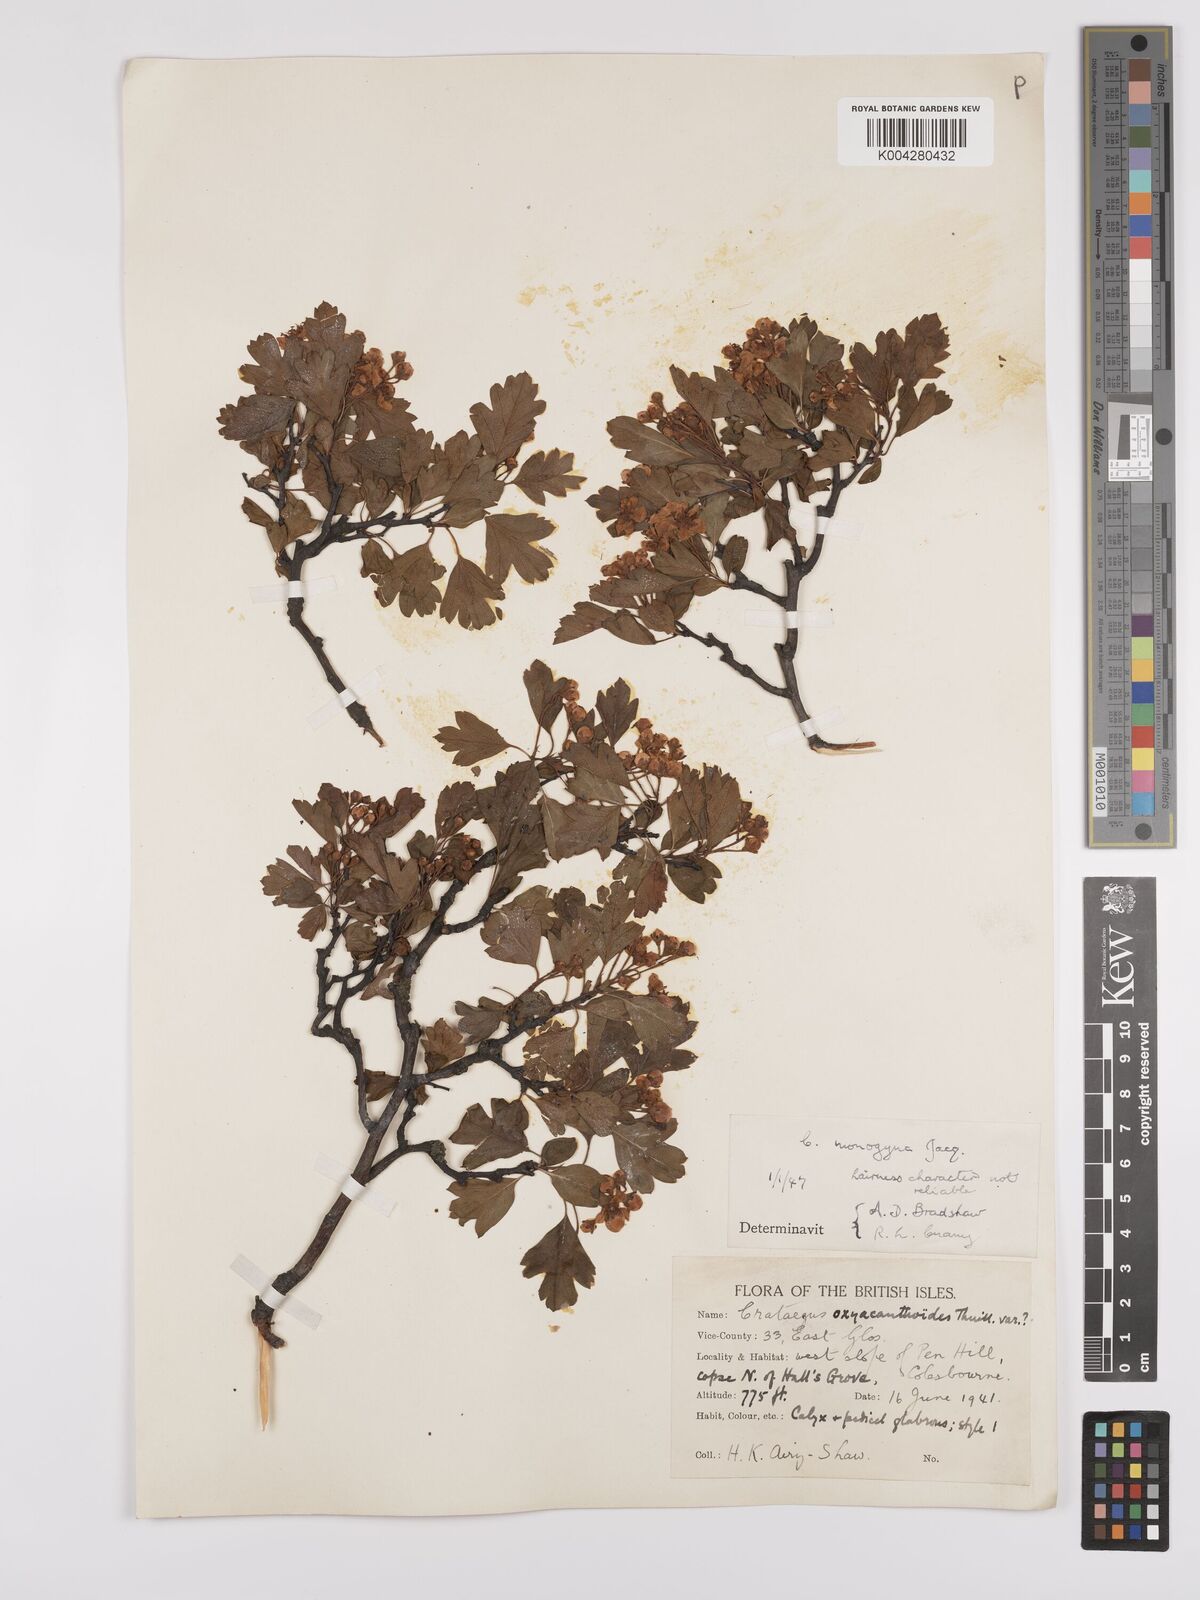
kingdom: Plantae
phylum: Tracheophyta
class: Magnoliopsida
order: Rosales
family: Rosaceae
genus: Crataegus
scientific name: Crataegus monogyna
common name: Hawthorn
